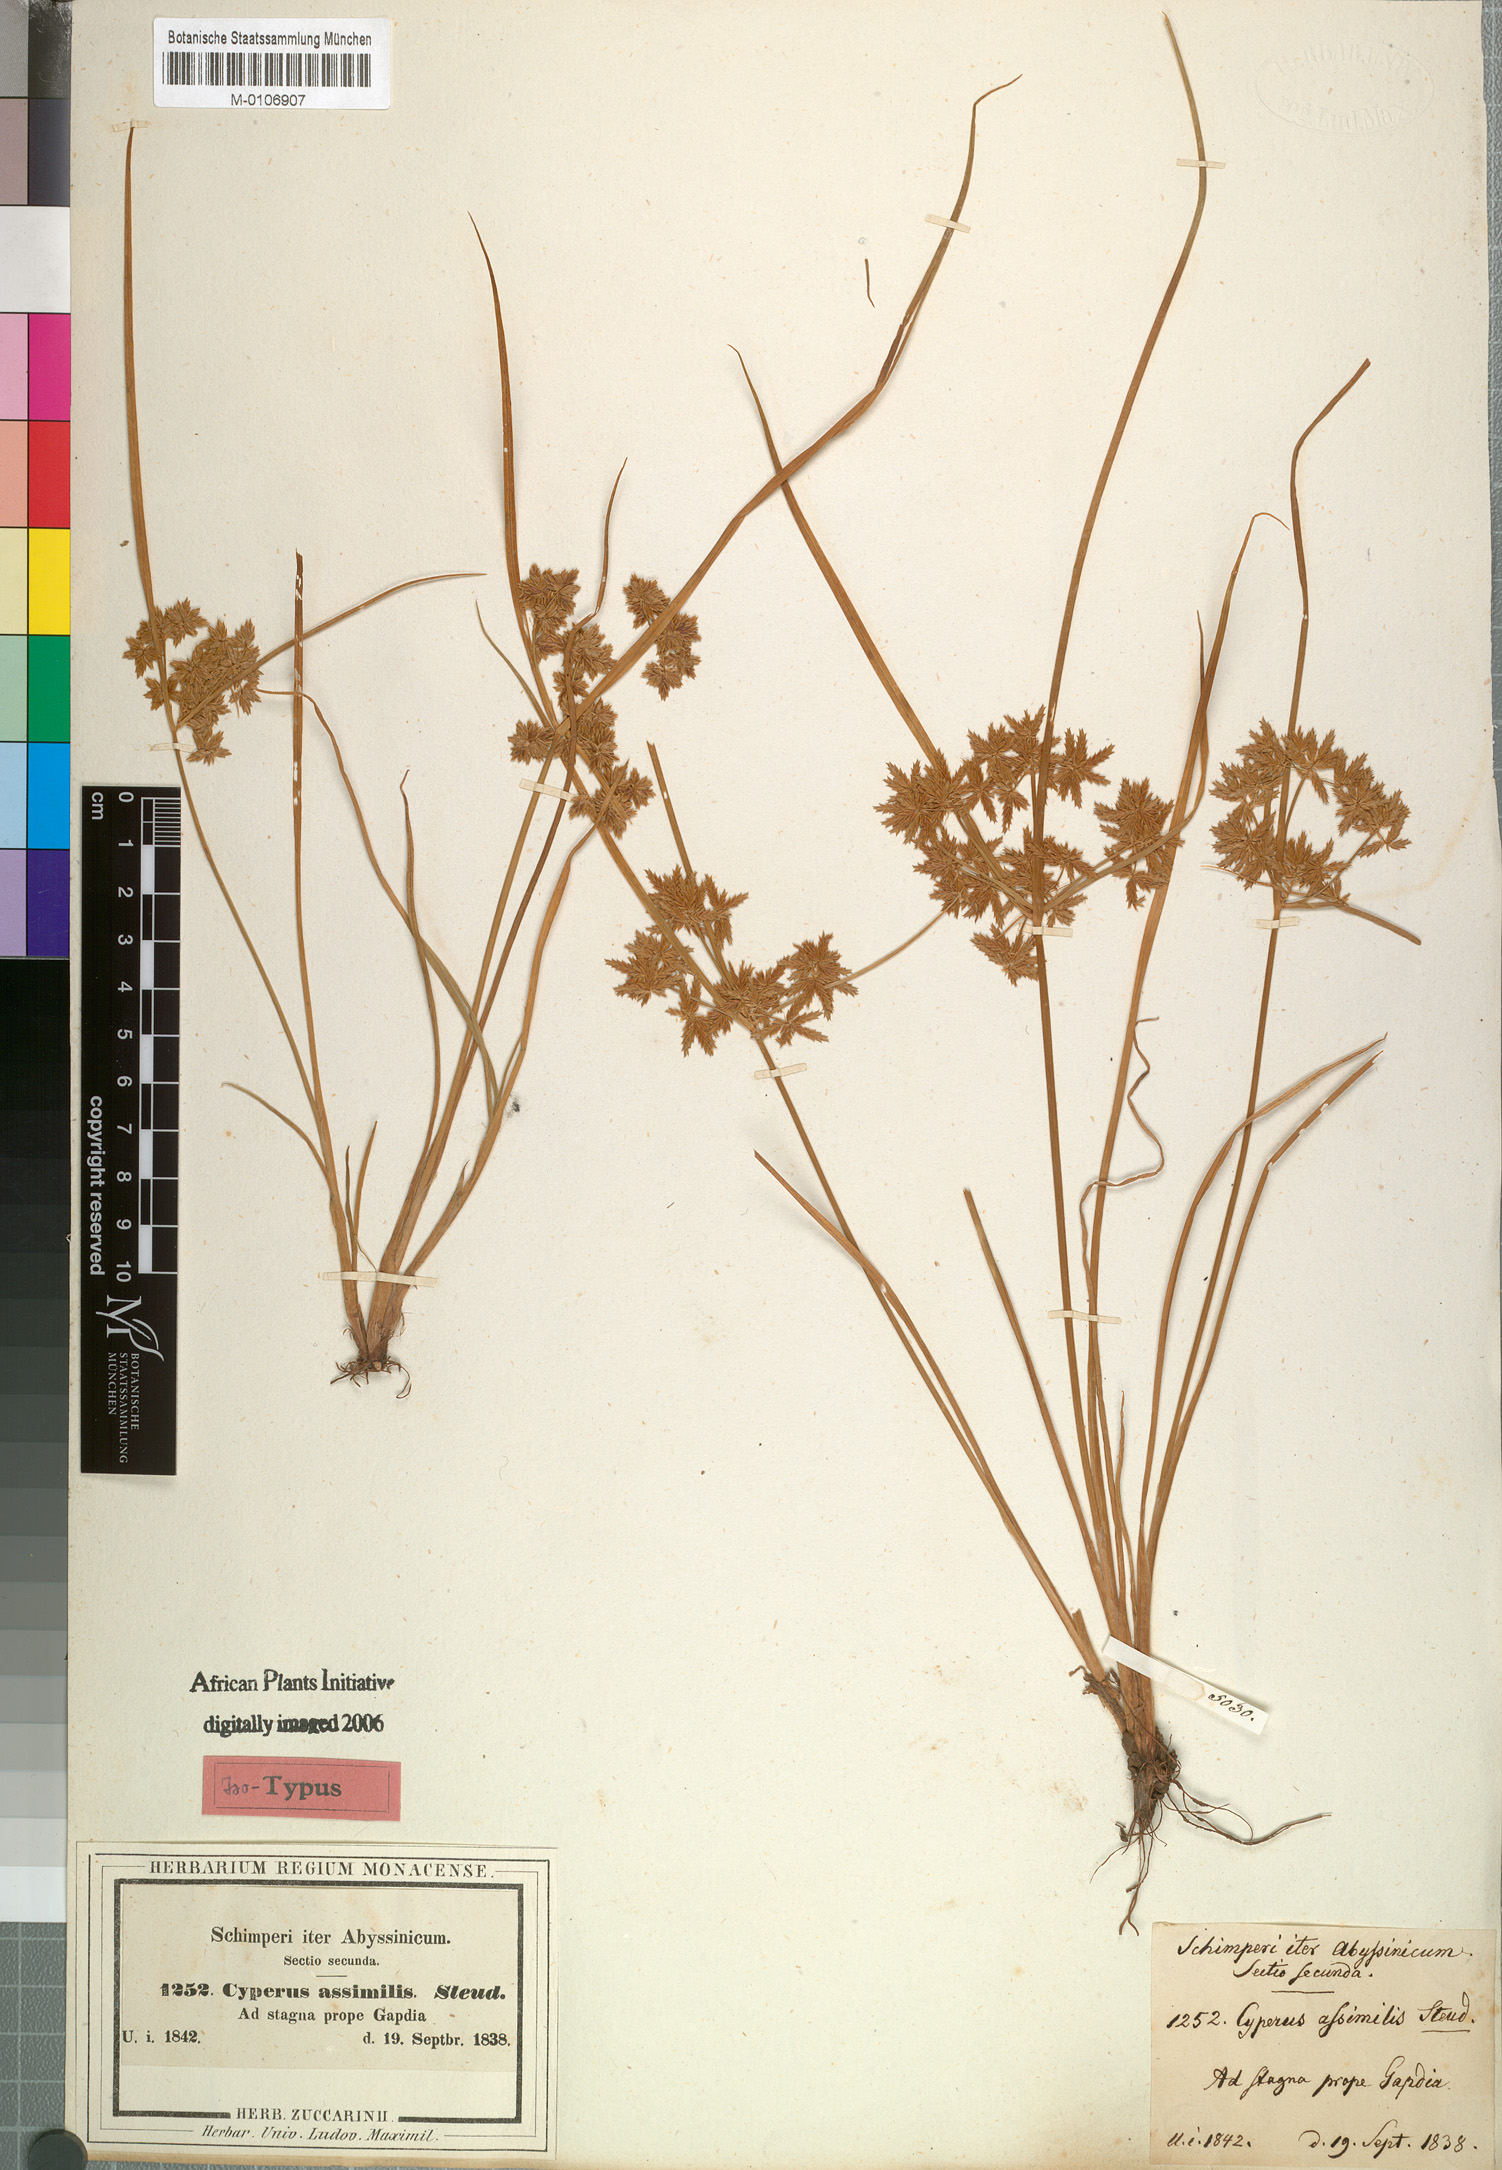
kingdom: Plantae
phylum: Tracheophyta
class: Liliopsida
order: Poales
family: Cyperaceae
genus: Cyperus
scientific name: Cyperus assimilis
